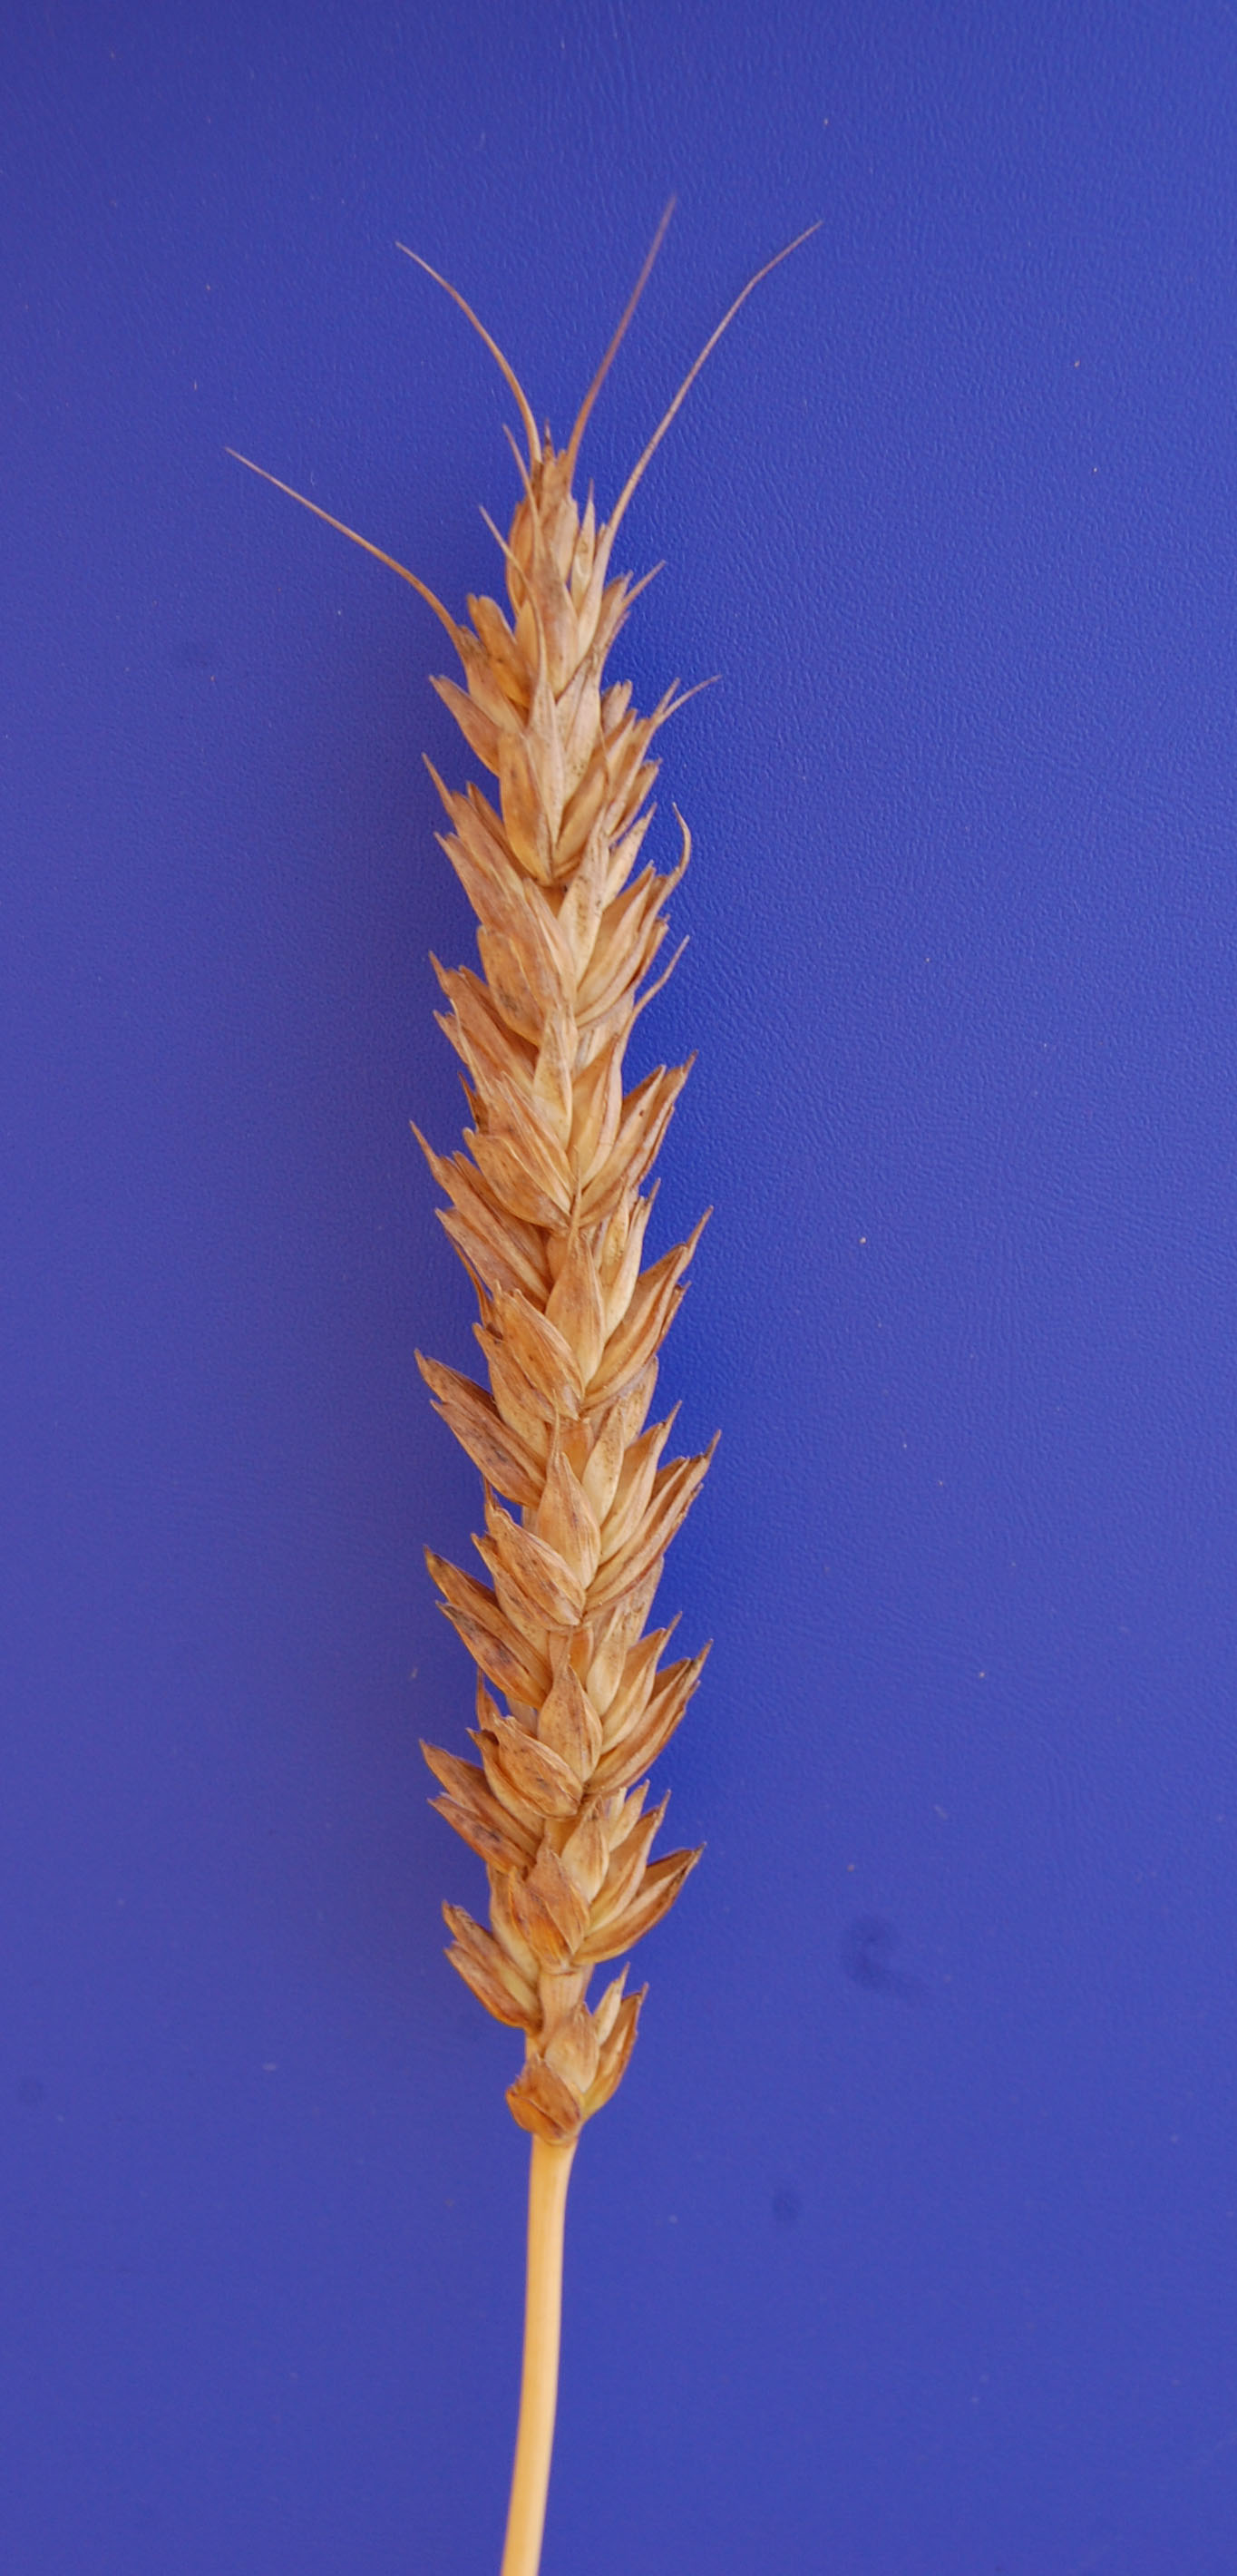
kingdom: Plantae
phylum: Tracheophyta
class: Liliopsida
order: Poales
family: Poaceae
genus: Triticum
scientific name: Triticum aestivum
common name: Common wheat
